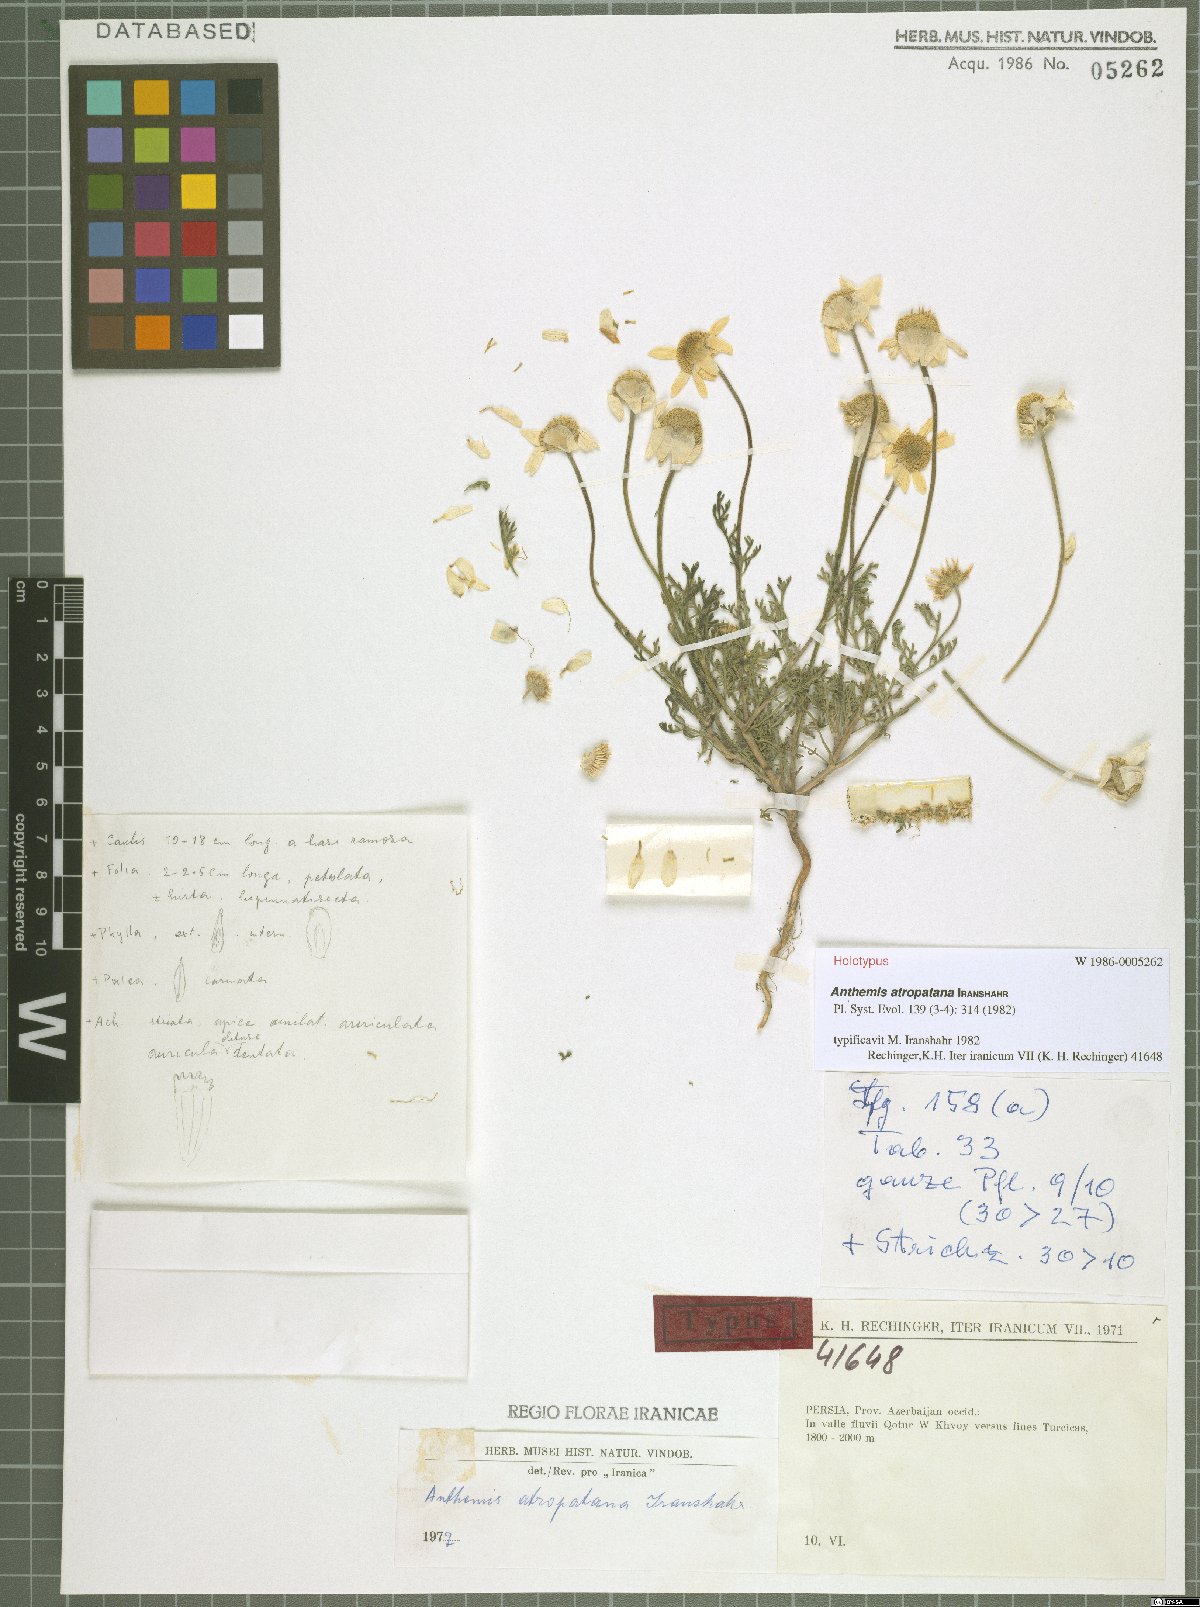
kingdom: Plantae
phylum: Tracheophyta
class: Magnoliopsida
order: Asterales
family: Asteraceae
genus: Anthemis
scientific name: Anthemis atropatana
